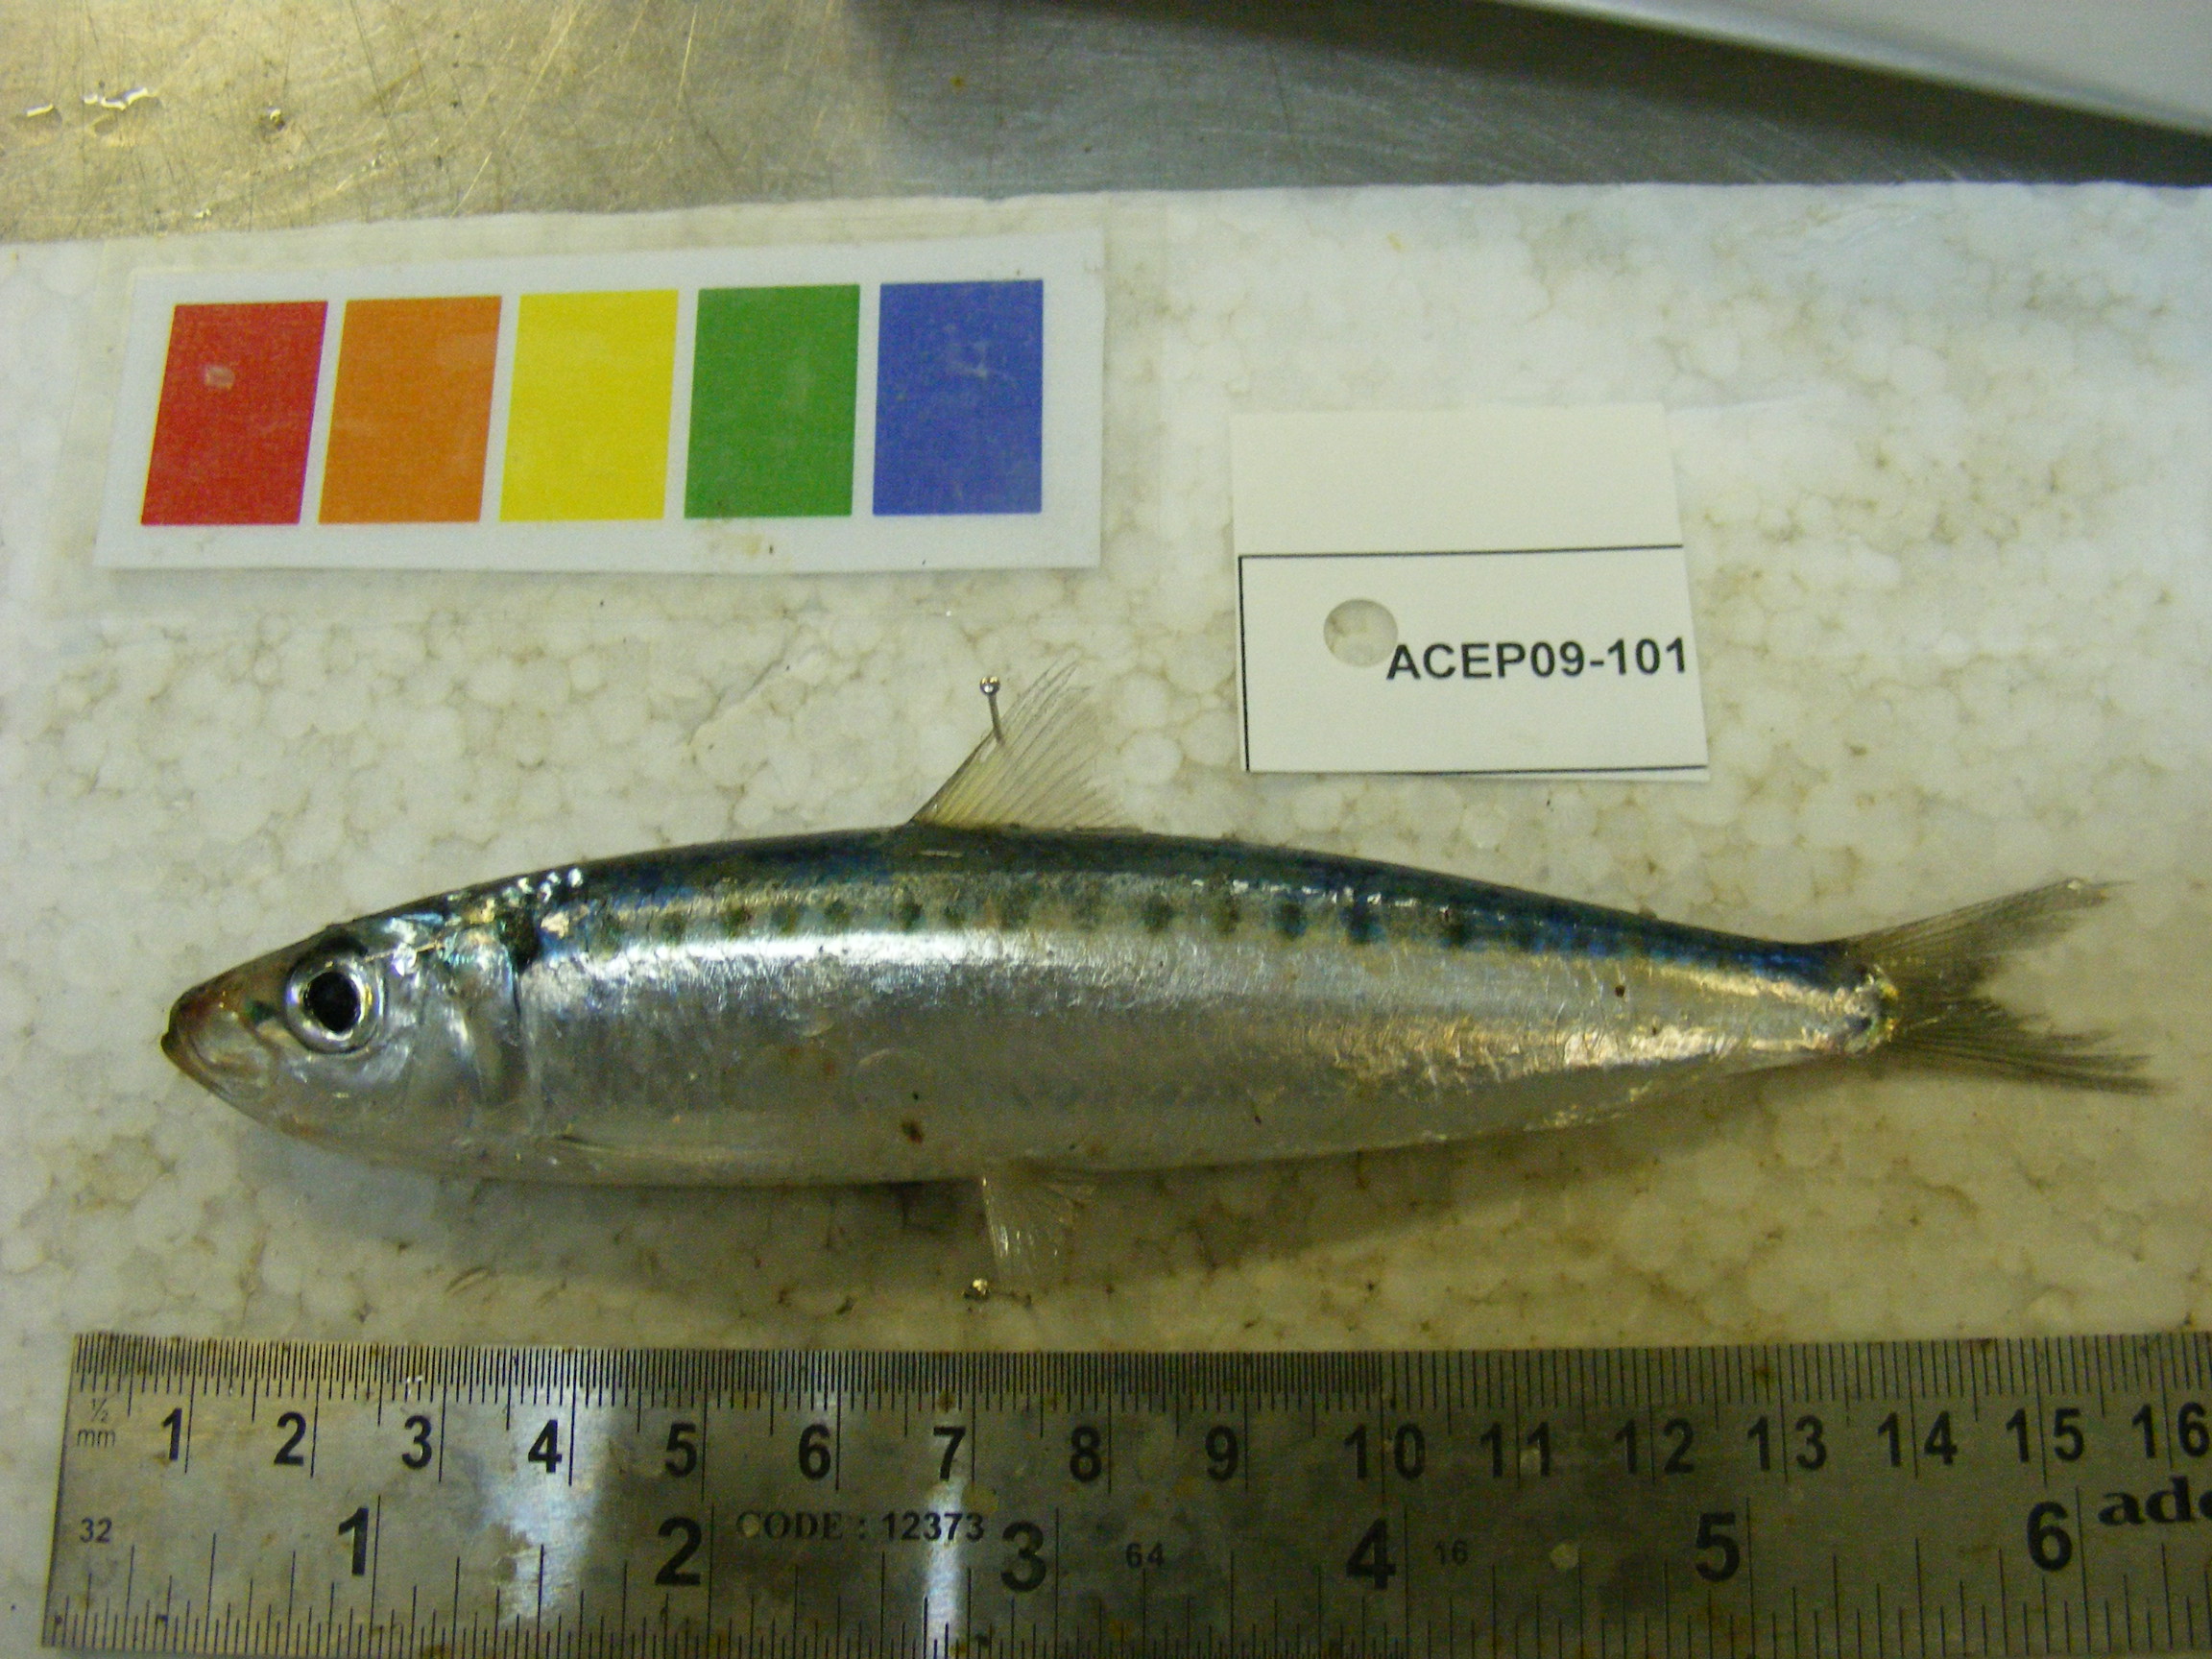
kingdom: Animalia
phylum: Chordata
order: Clupeiformes
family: Clupeidae
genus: Sardinella
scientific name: Sardinella
